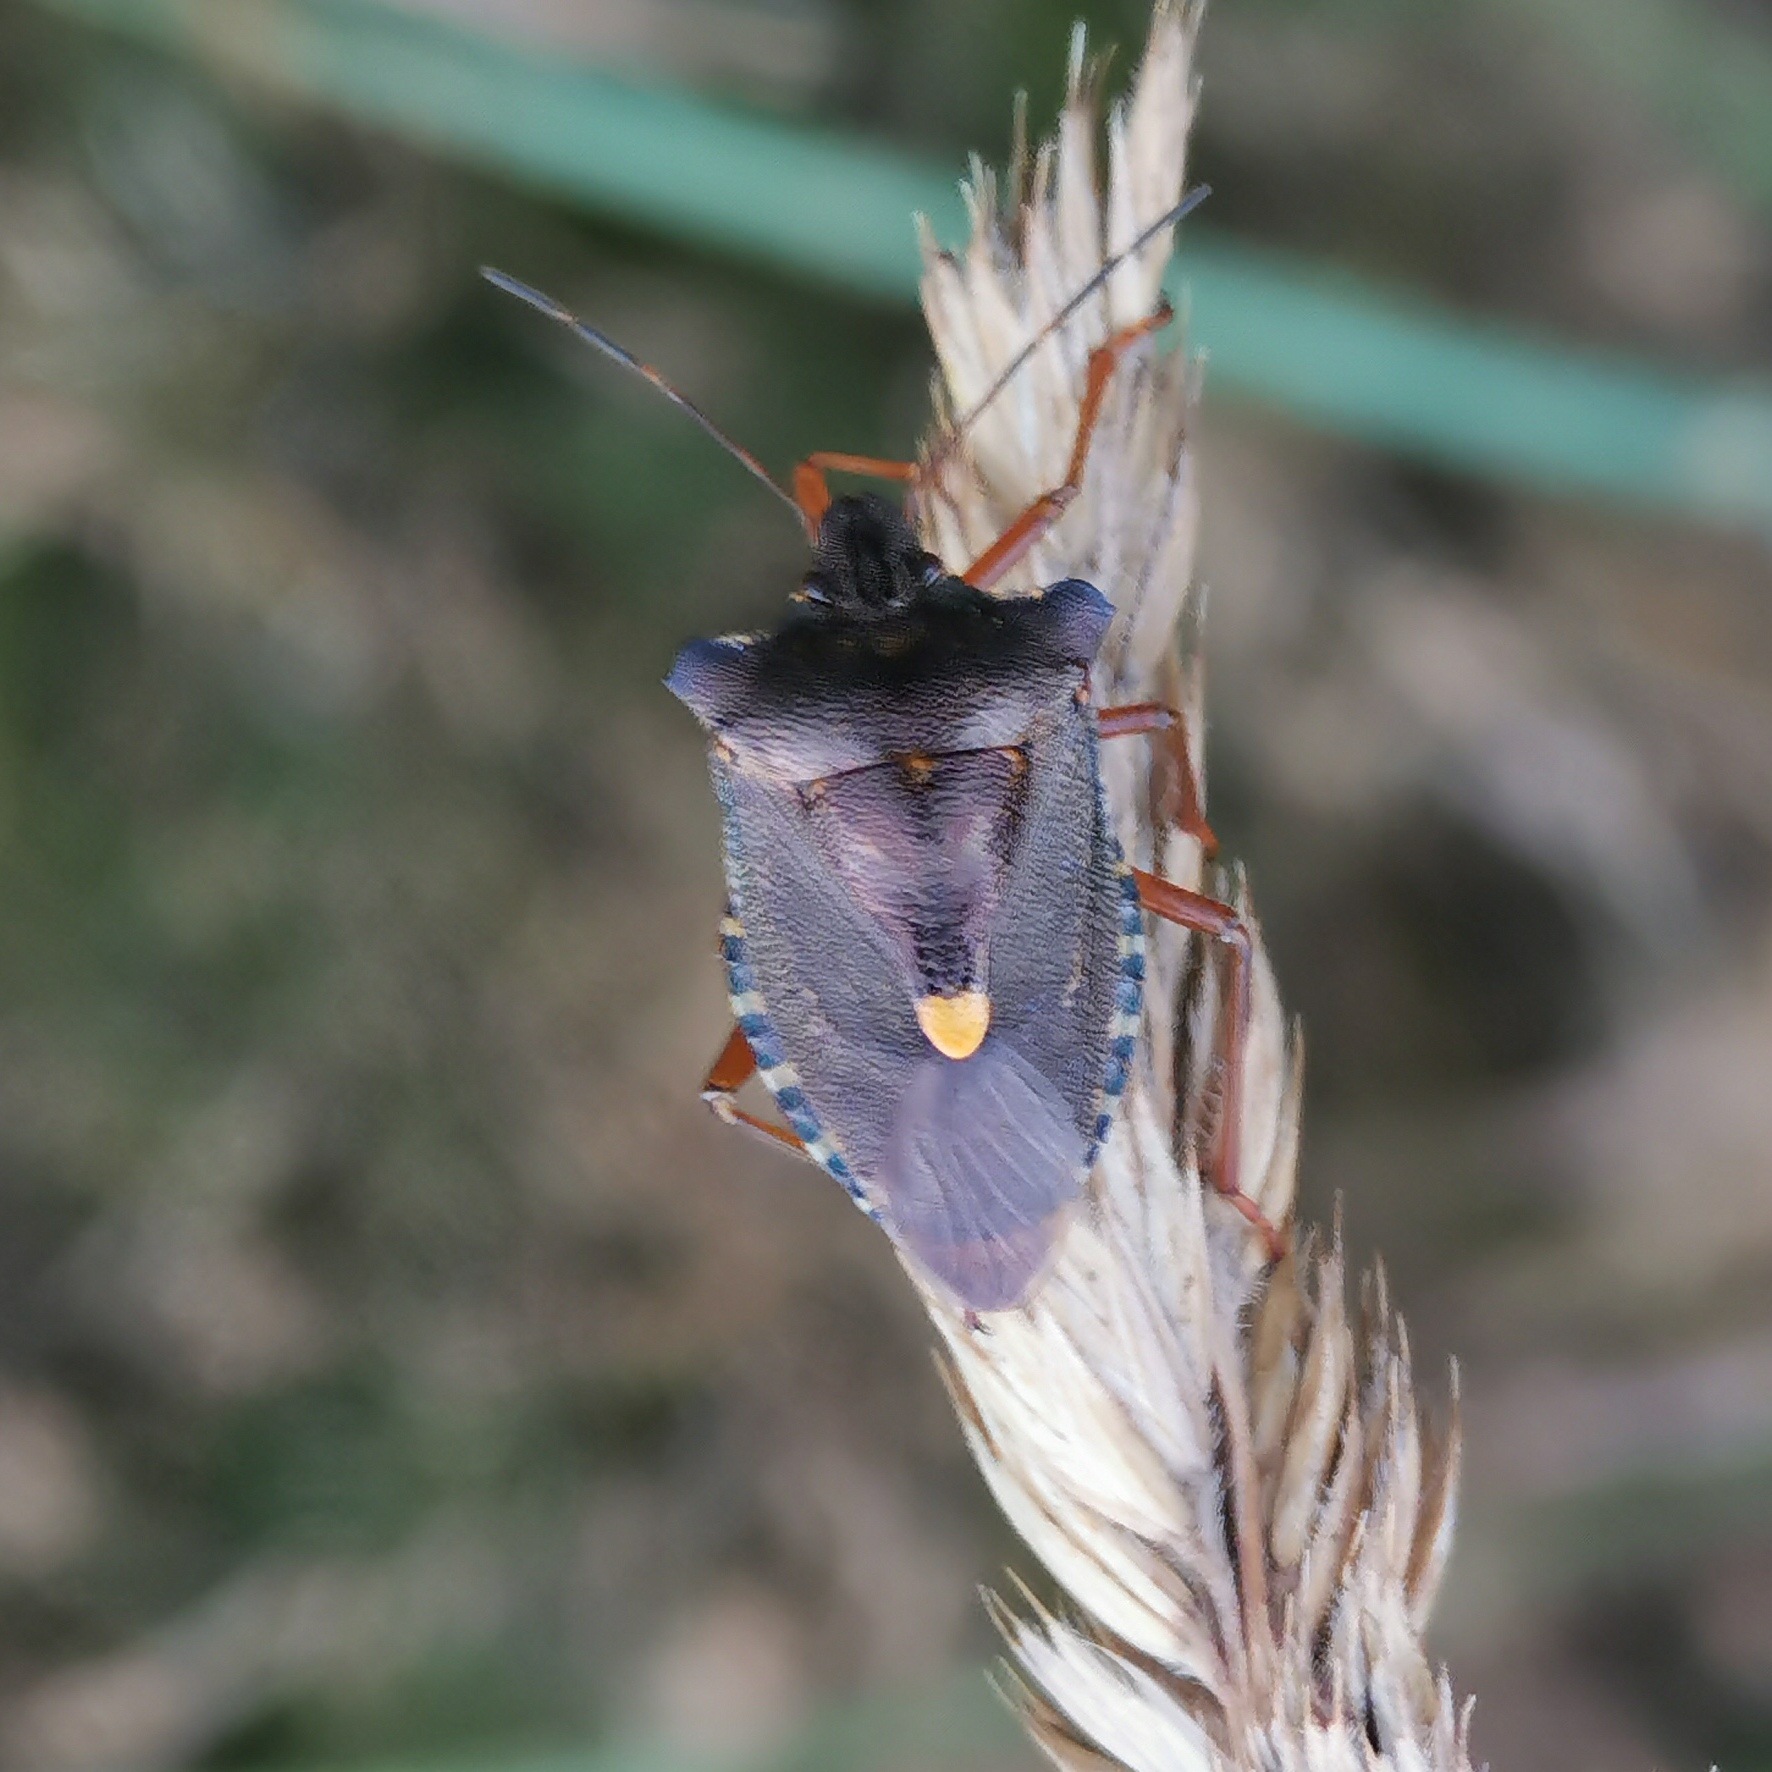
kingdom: Animalia
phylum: Arthropoda
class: Insecta
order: Hemiptera
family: Pentatomidae
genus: Pentatoma
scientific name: Pentatoma rufipes
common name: Rødbenet bredtæge
